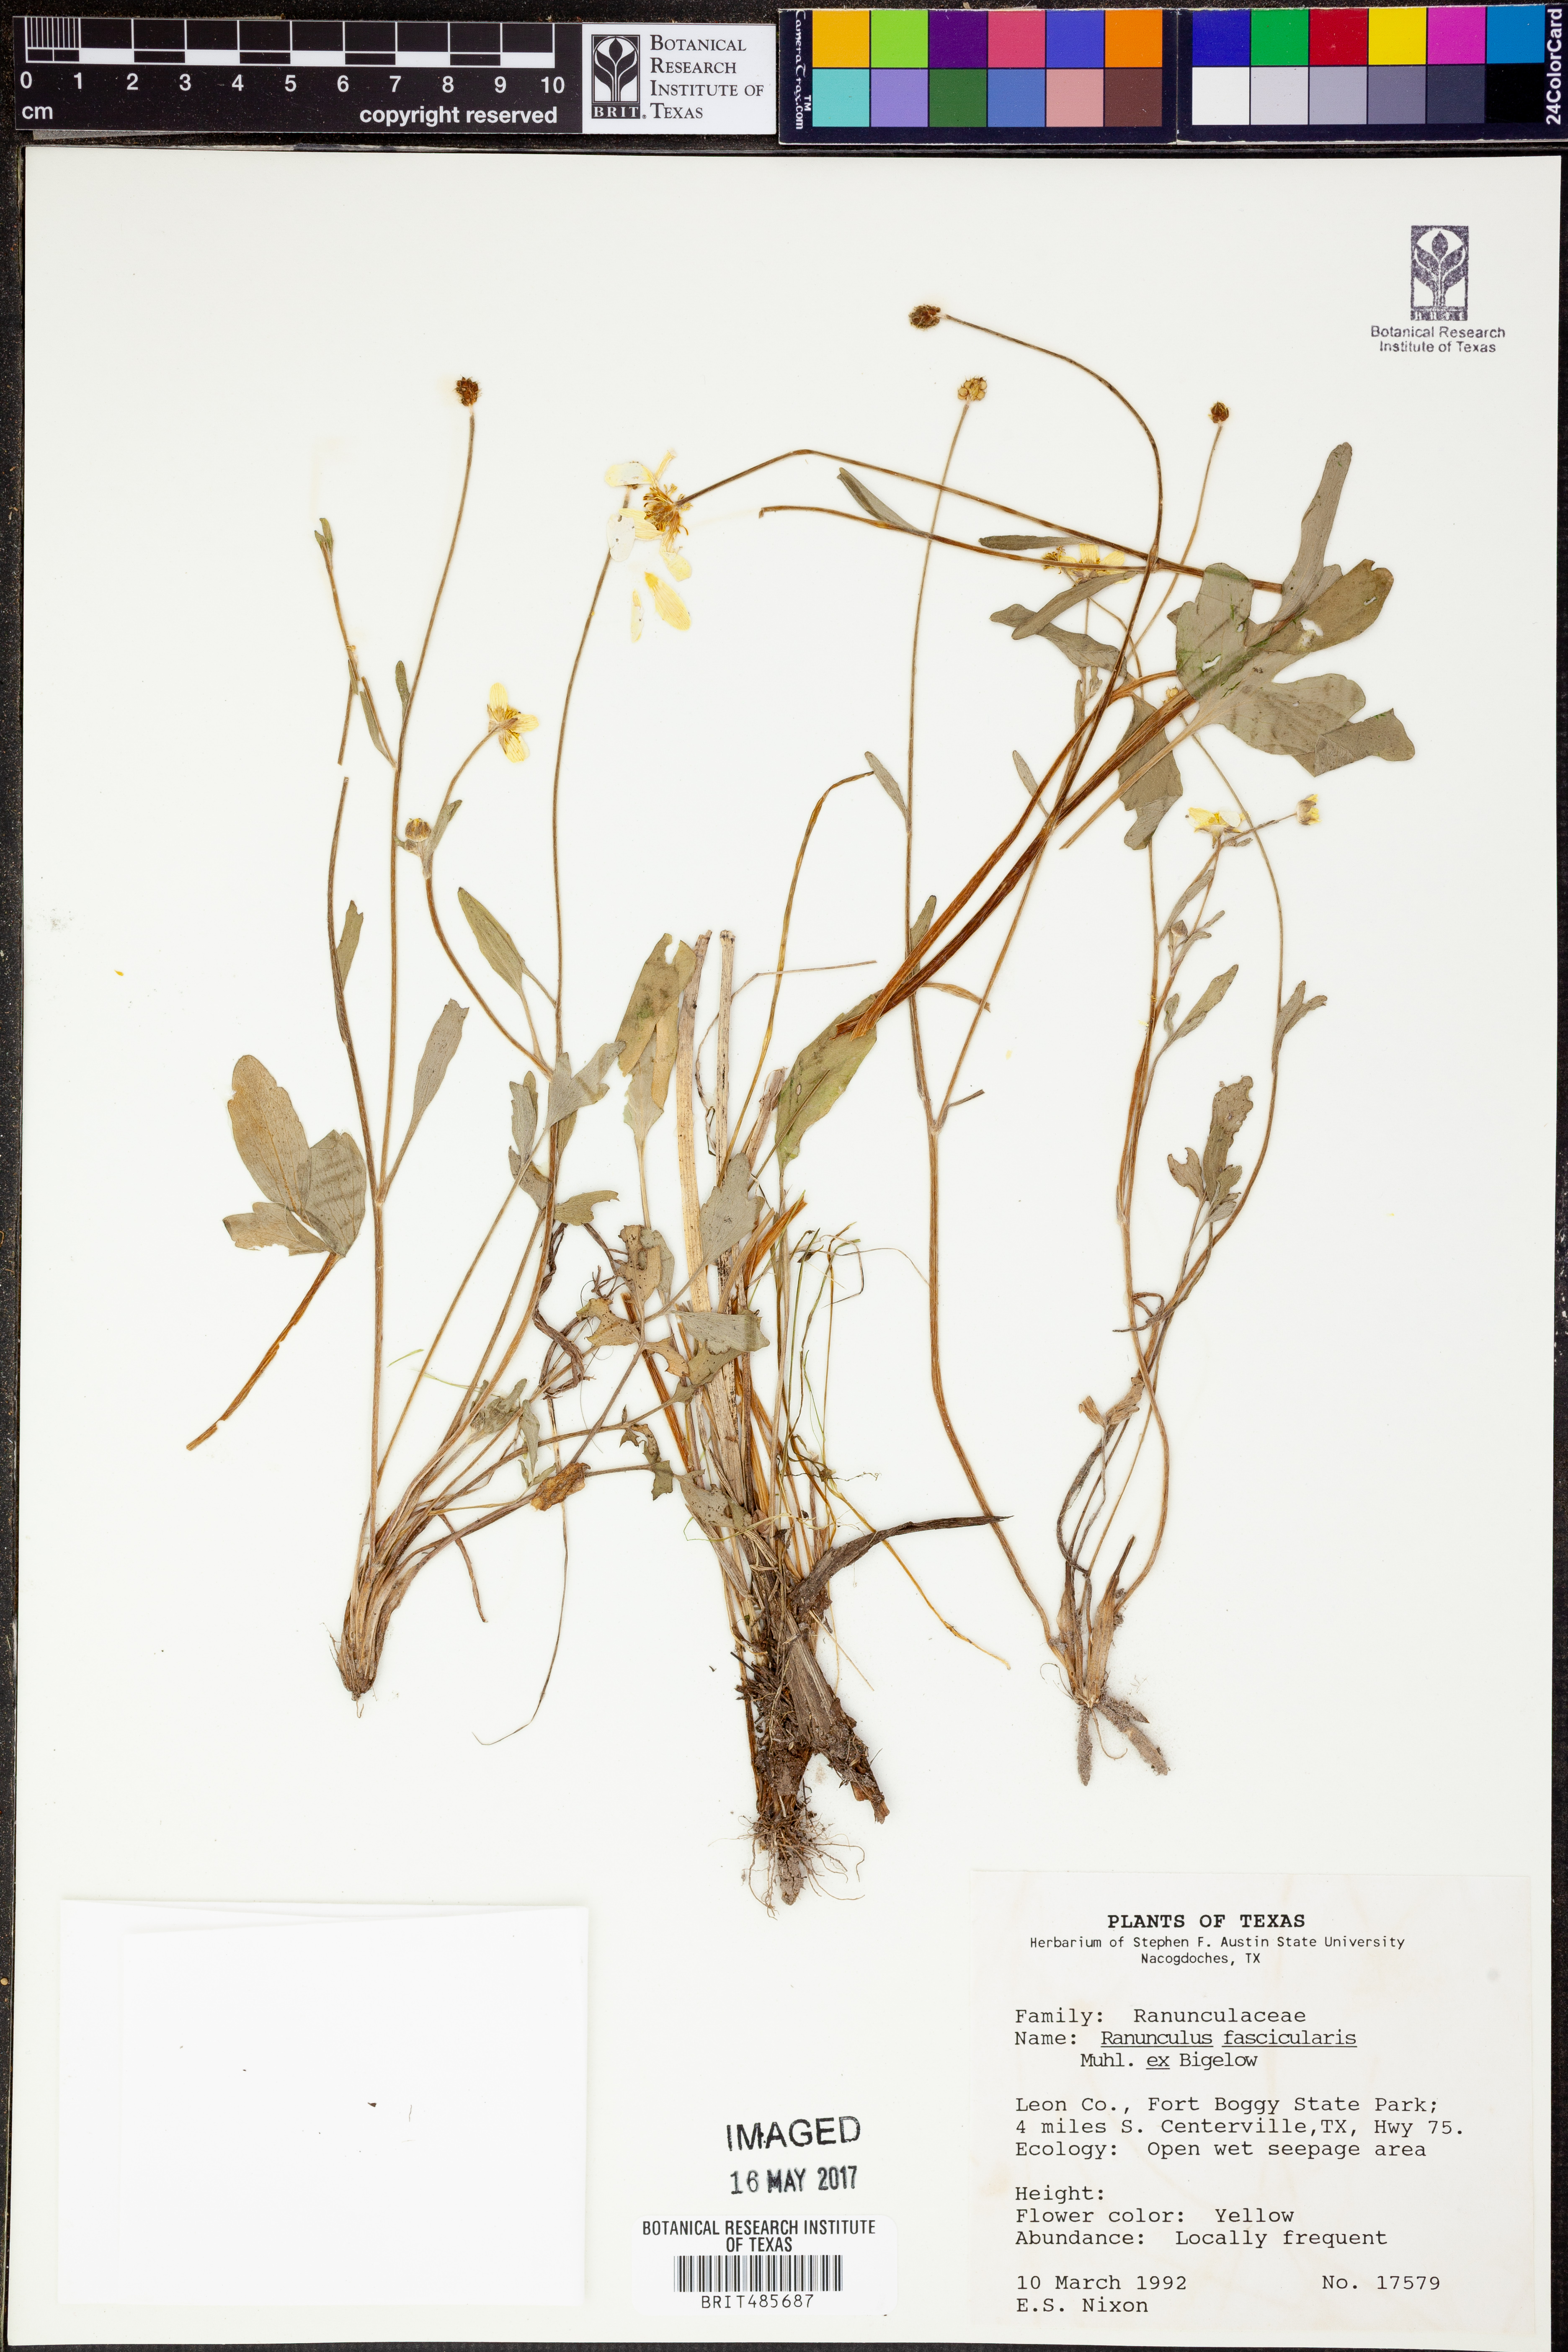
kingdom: Plantae
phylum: Tracheophyta
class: Magnoliopsida
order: Ranunculales
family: Ranunculaceae
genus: Ranunculus
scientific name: Ranunculus fascicularis
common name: Early buttercup
